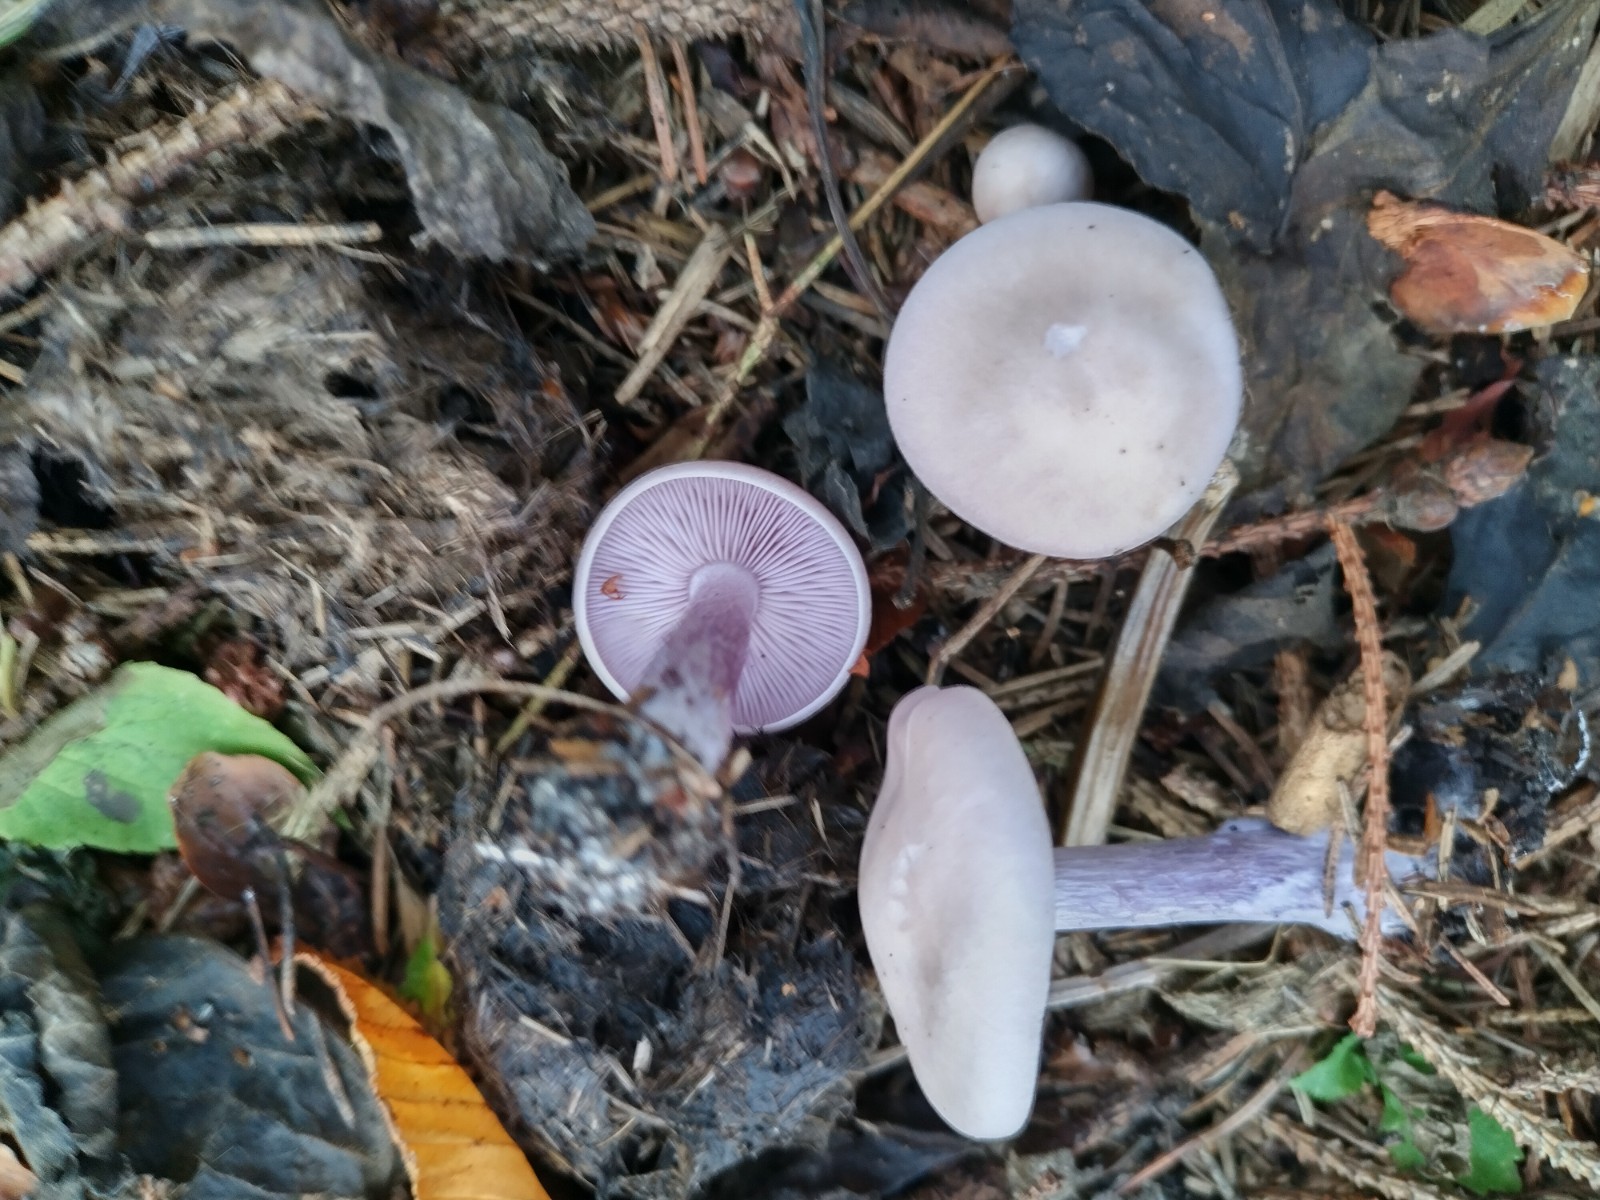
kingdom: Fungi
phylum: Basidiomycota
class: Agaricomycetes
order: Agaricales
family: Tricholomataceae
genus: Lepista
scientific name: Lepista nuda
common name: violet hekseringshat
